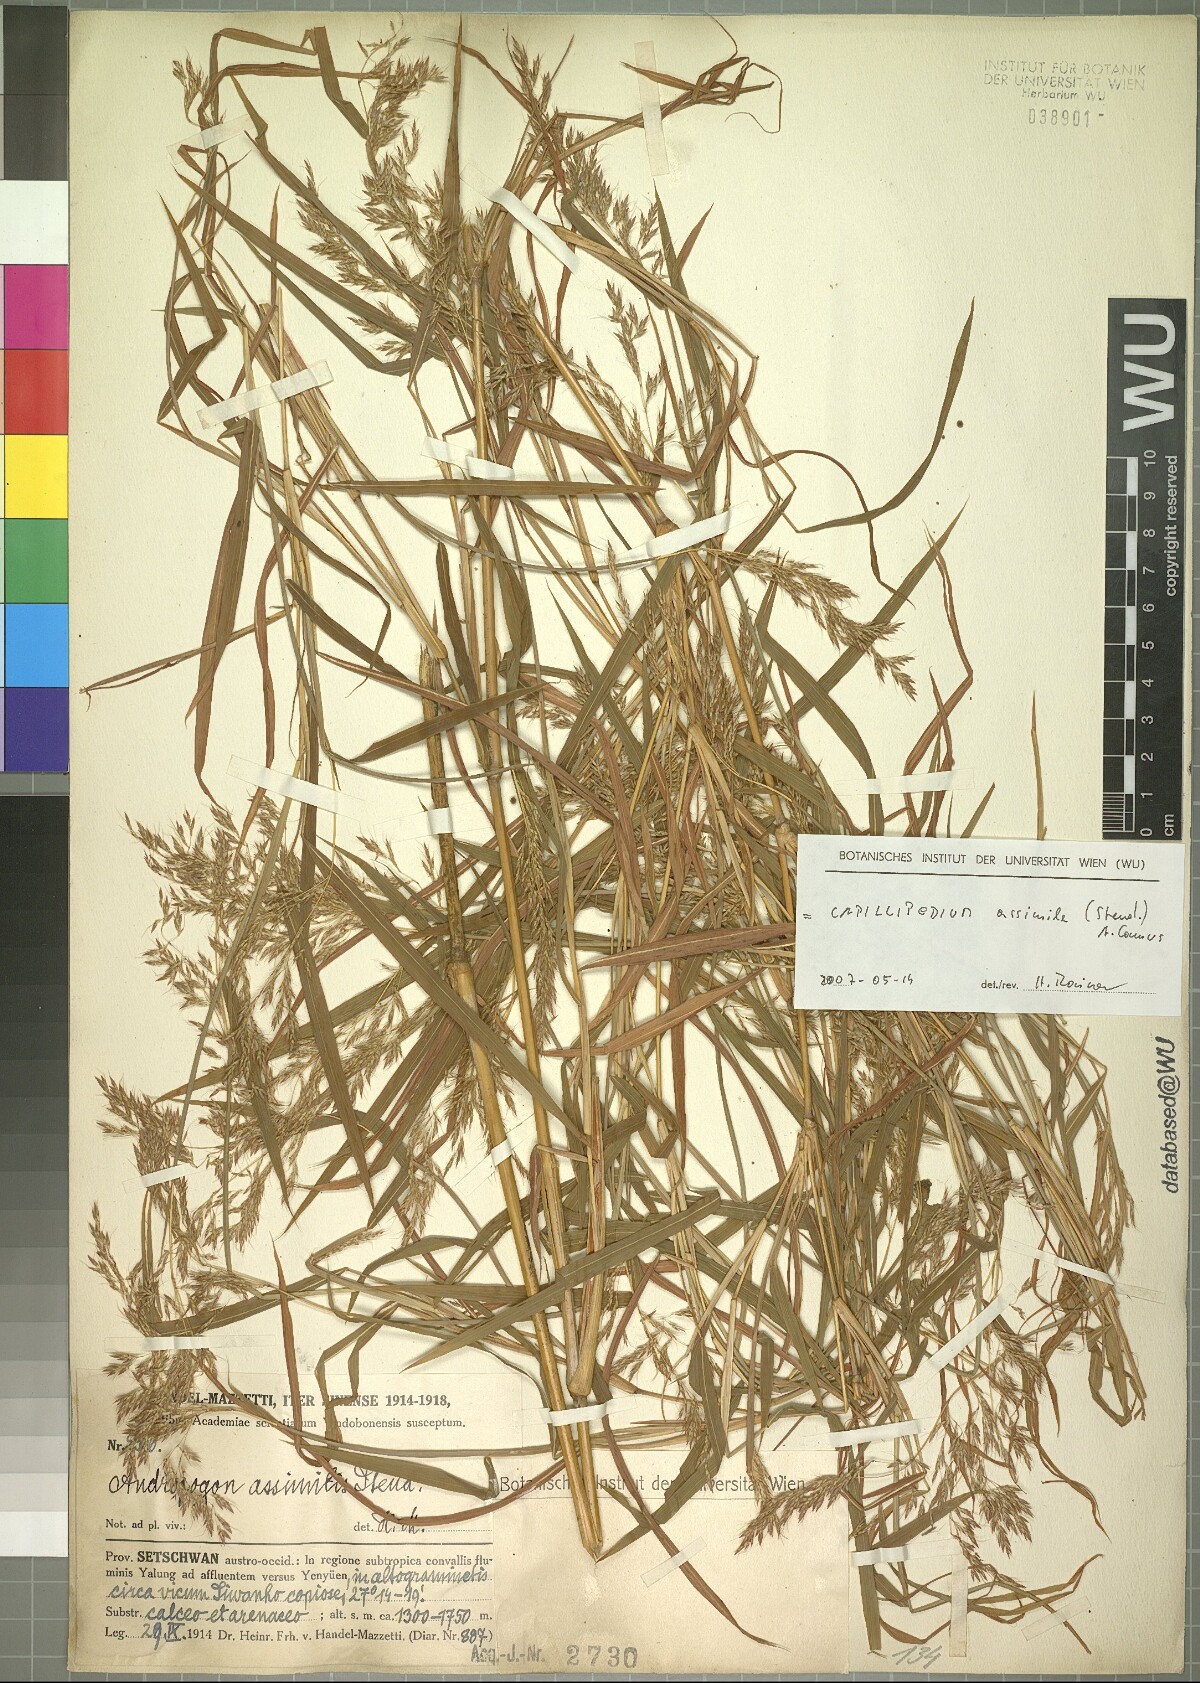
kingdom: Plantae
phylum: Tracheophyta
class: Liliopsida
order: Poales
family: Poaceae
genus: Capillipedium
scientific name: Capillipedium assimile
